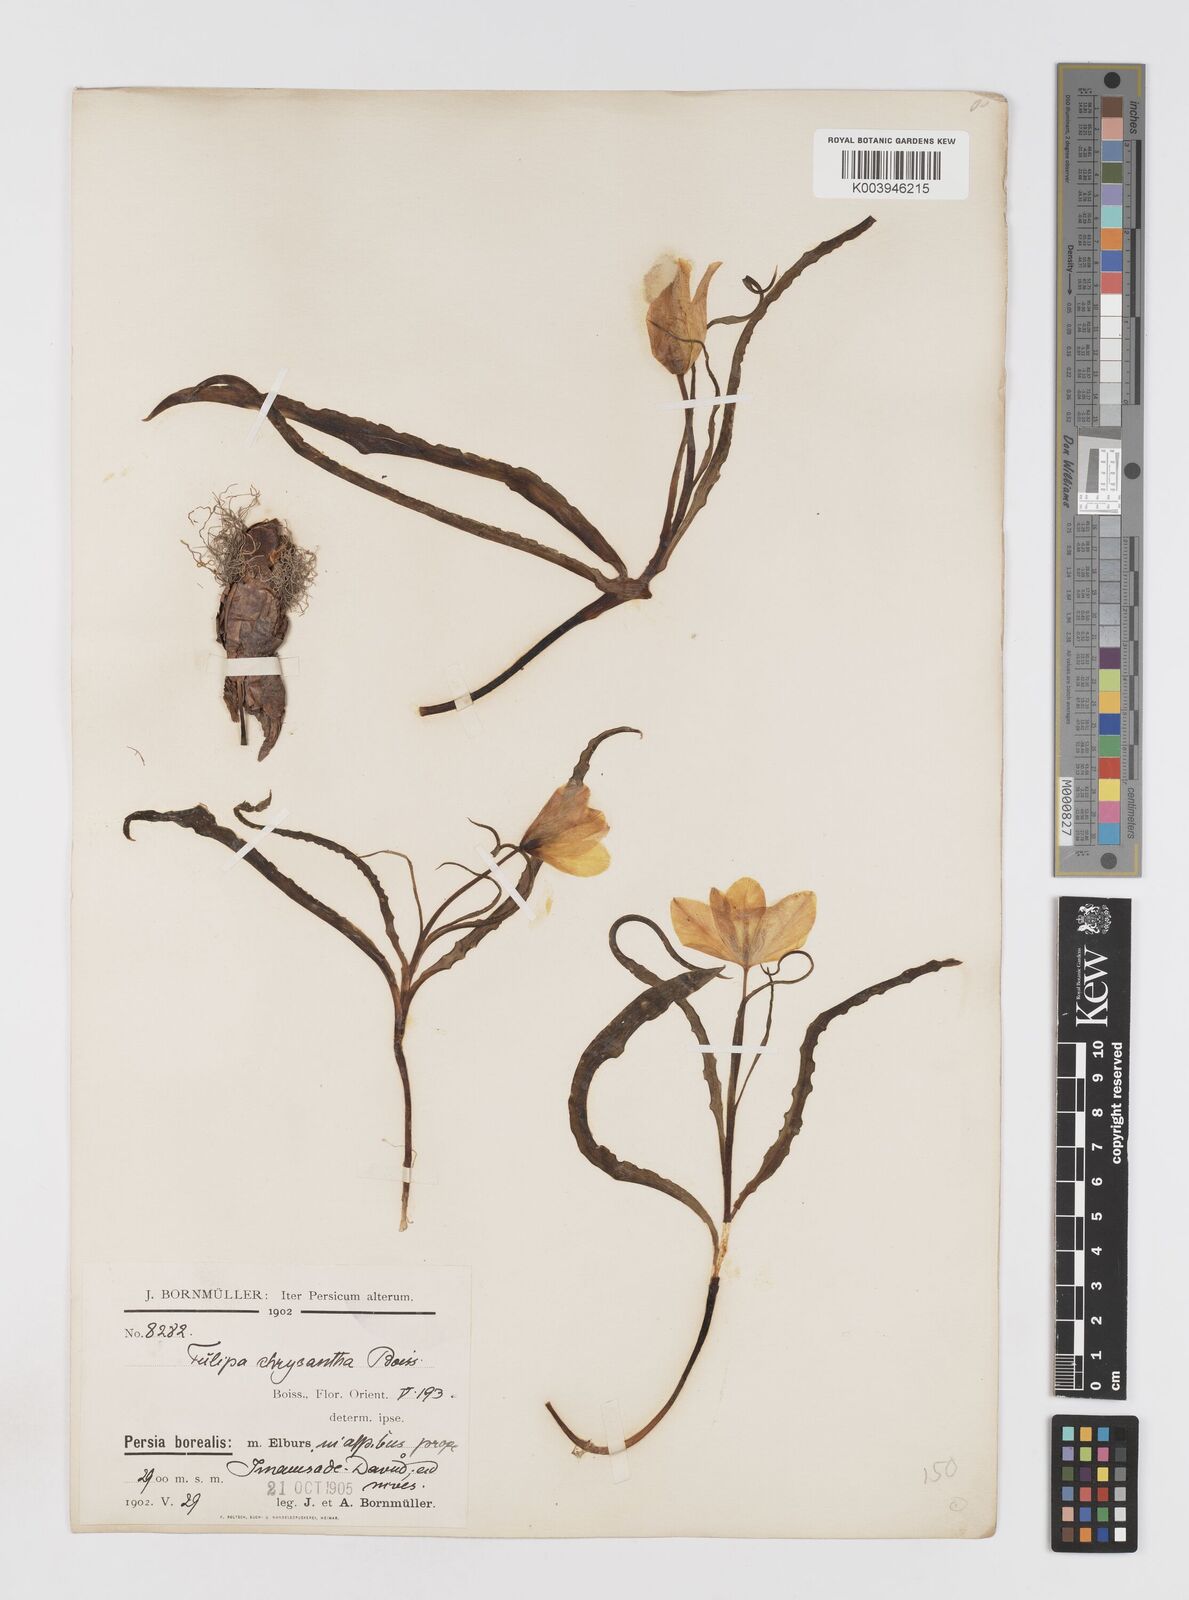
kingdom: Plantae
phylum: Tracheophyta
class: Liliopsida
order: Liliales
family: Liliaceae
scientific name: Liliaceae
